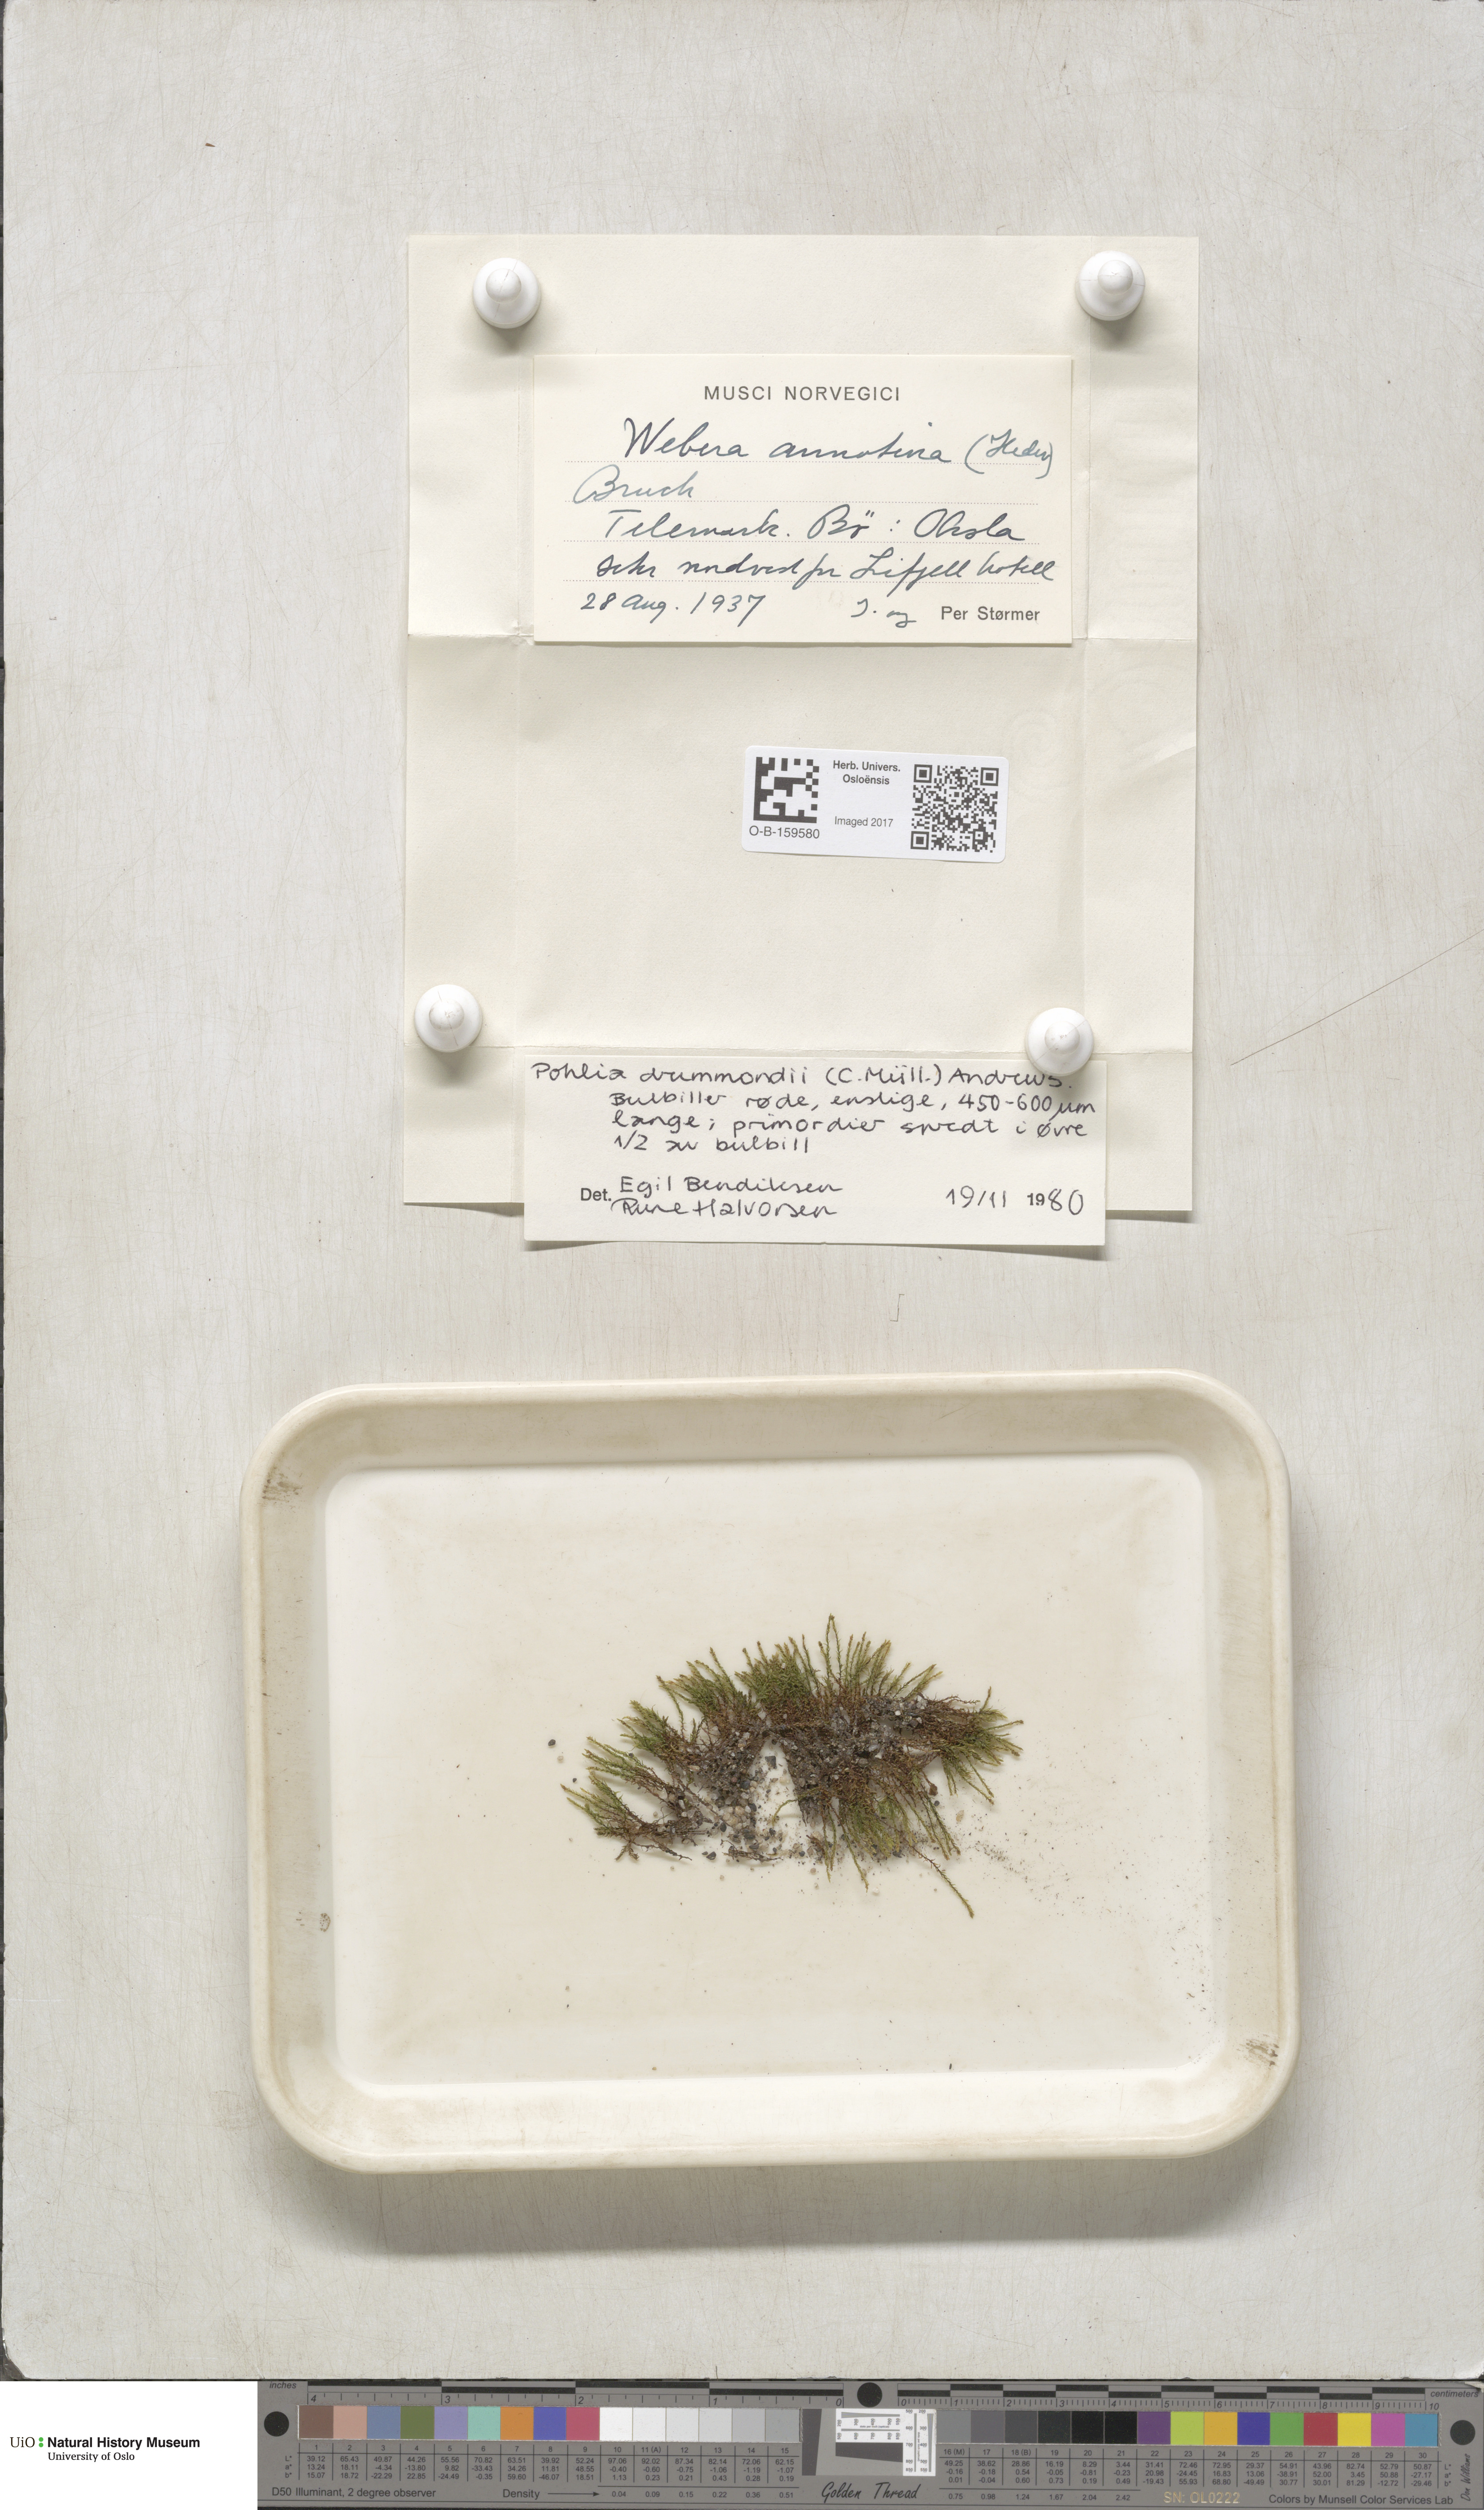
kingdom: Plantae
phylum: Bryophyta
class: Bryopsida
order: Bryales
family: Mniaceae
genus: Pohlia
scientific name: Pohlia drummondii
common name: Drummond's nodding moss
